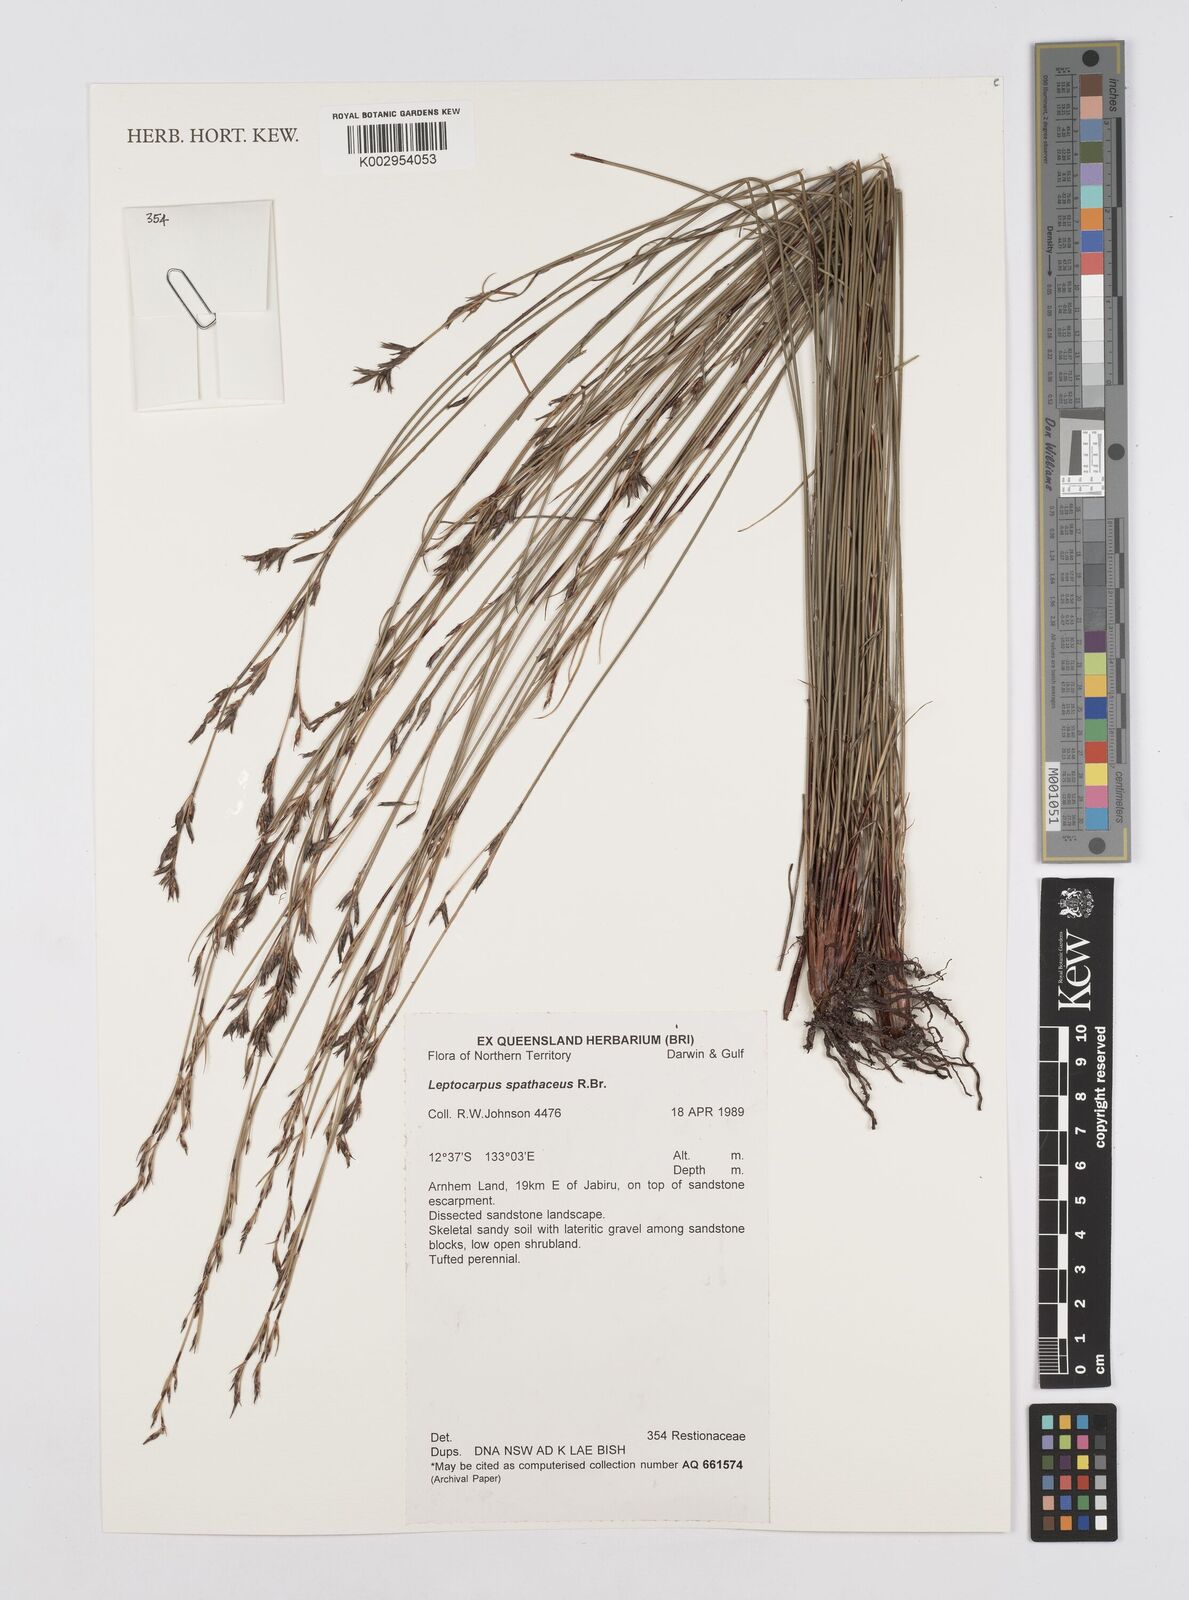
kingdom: Plantae
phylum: Tracheophyta
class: Liliopsida
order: Poales
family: Restionaceae
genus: Dapsilanthus
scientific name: Dapsilanthus spathaceus
